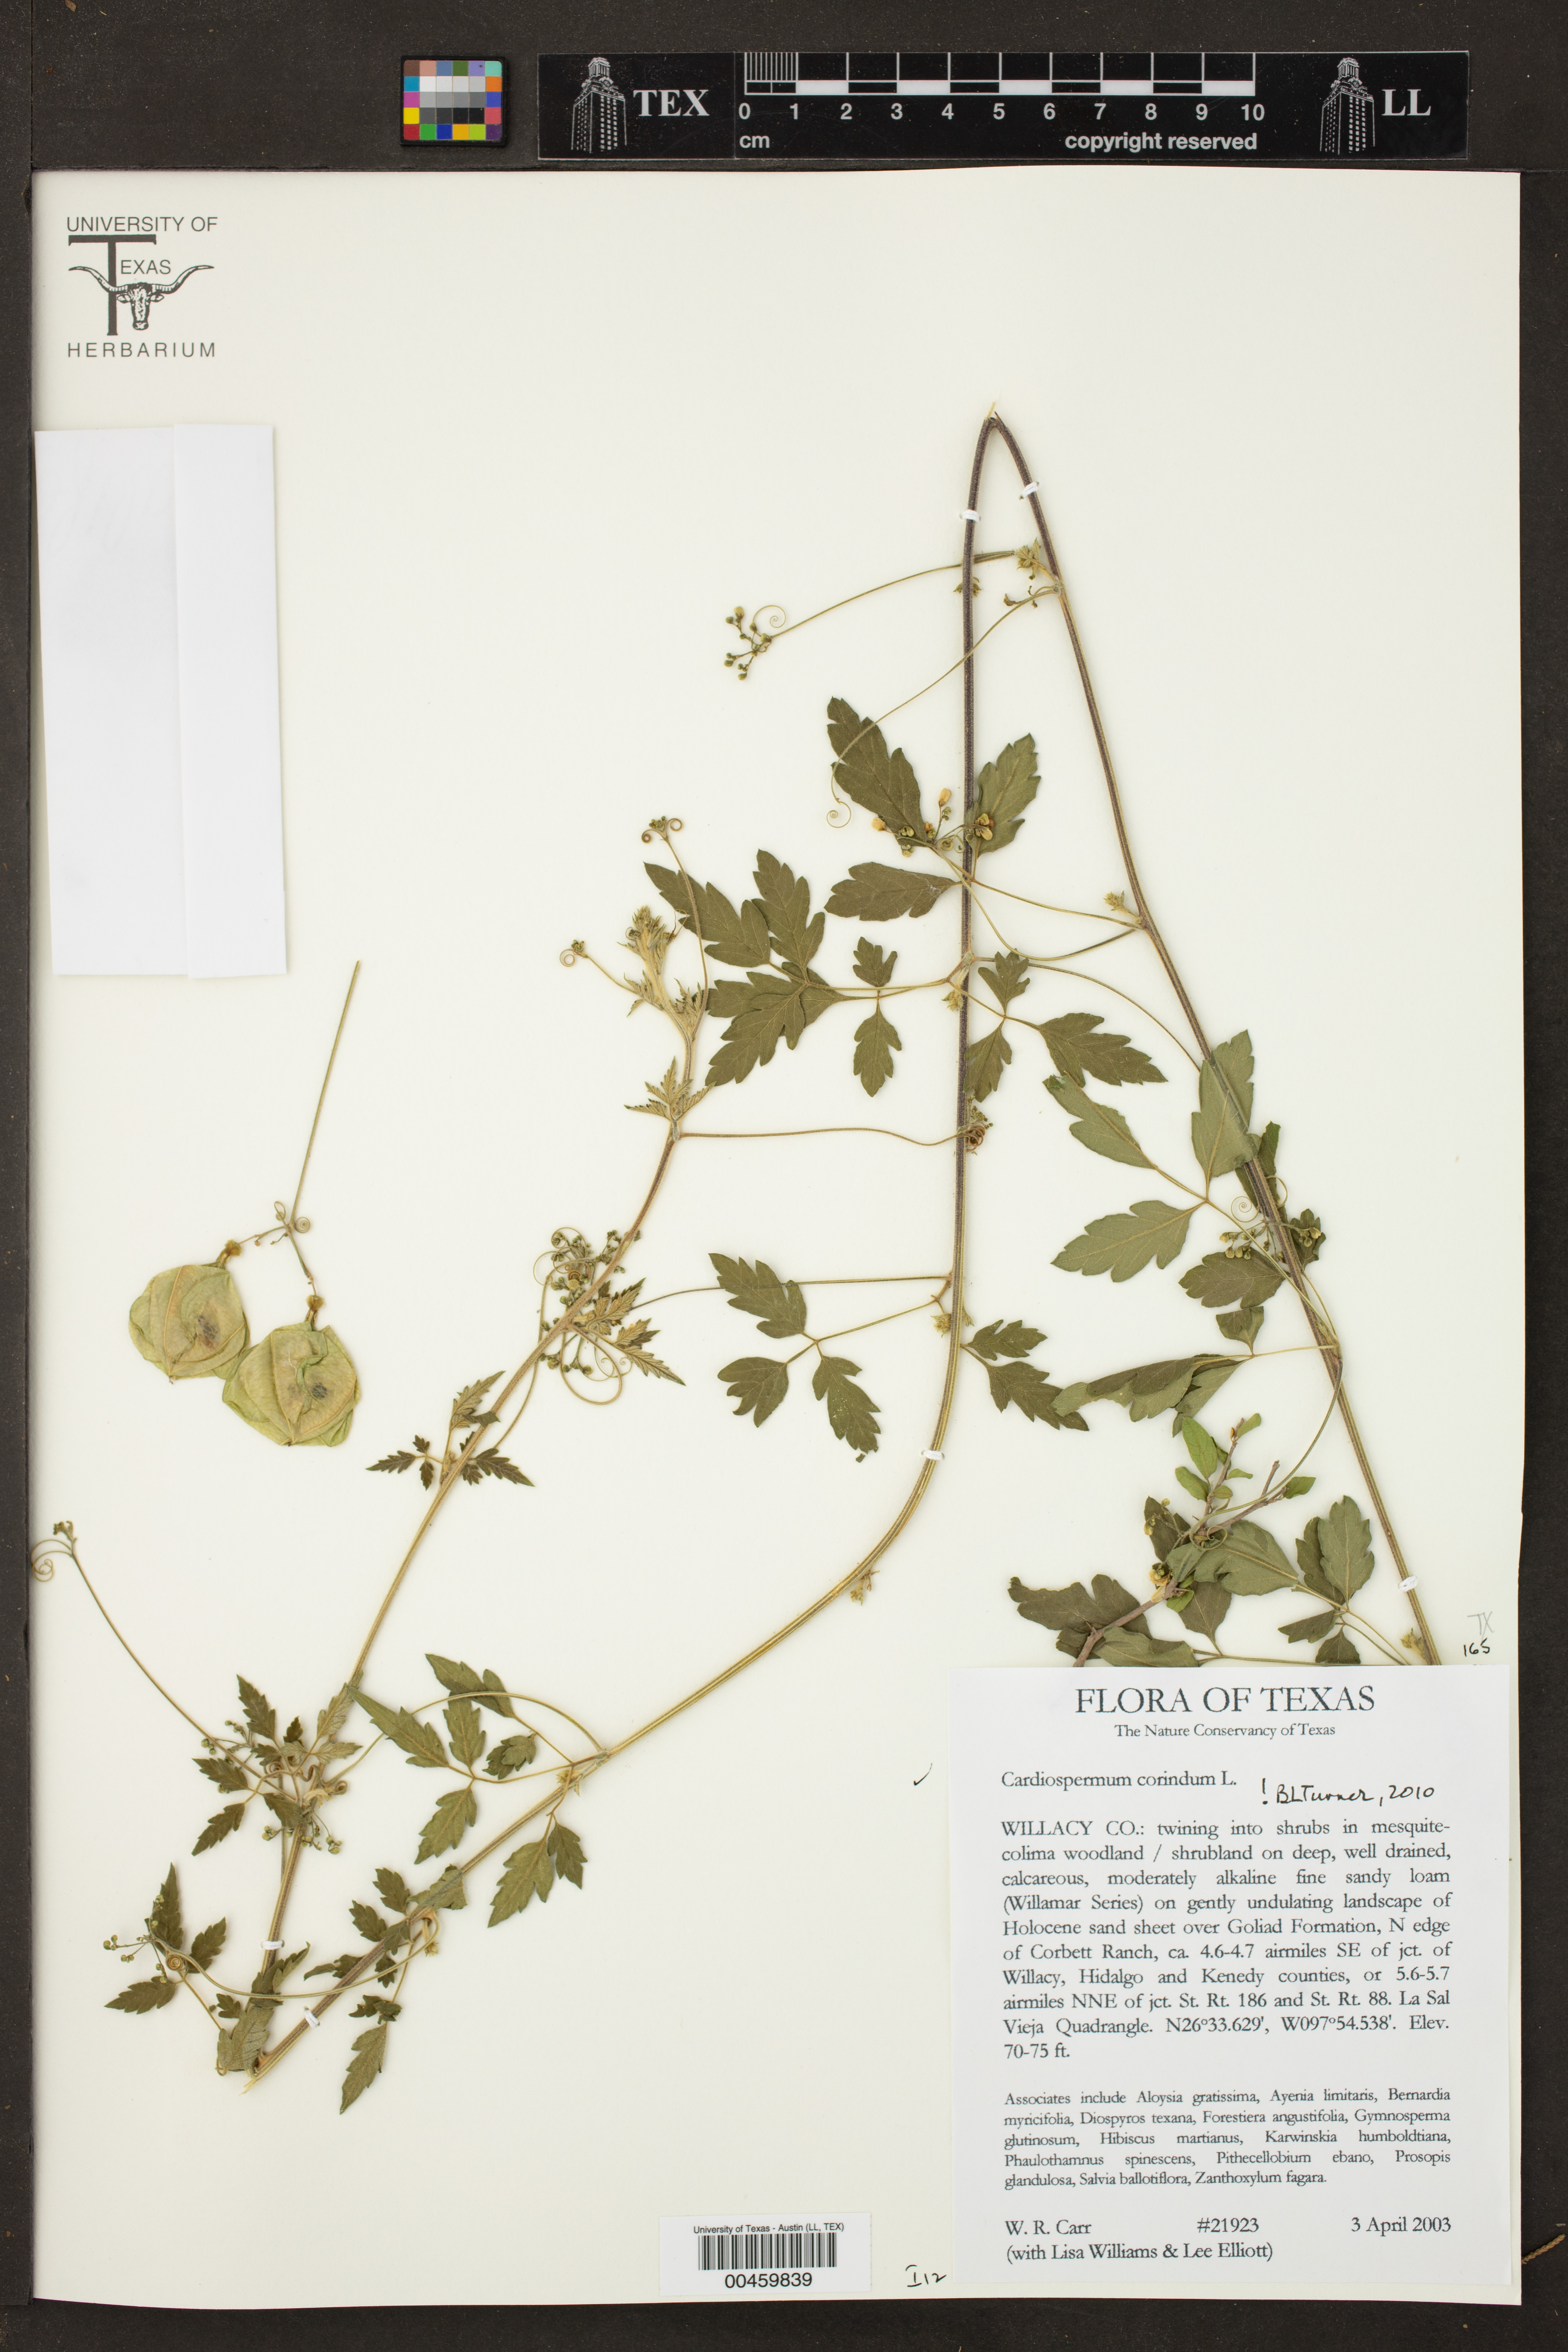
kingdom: Plantae
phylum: Tracheophyta
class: Magnoliopsida
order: Sapindales
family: Sapindaceae
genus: Cardiospermum
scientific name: Cardiospermum corindum
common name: Faux persil
